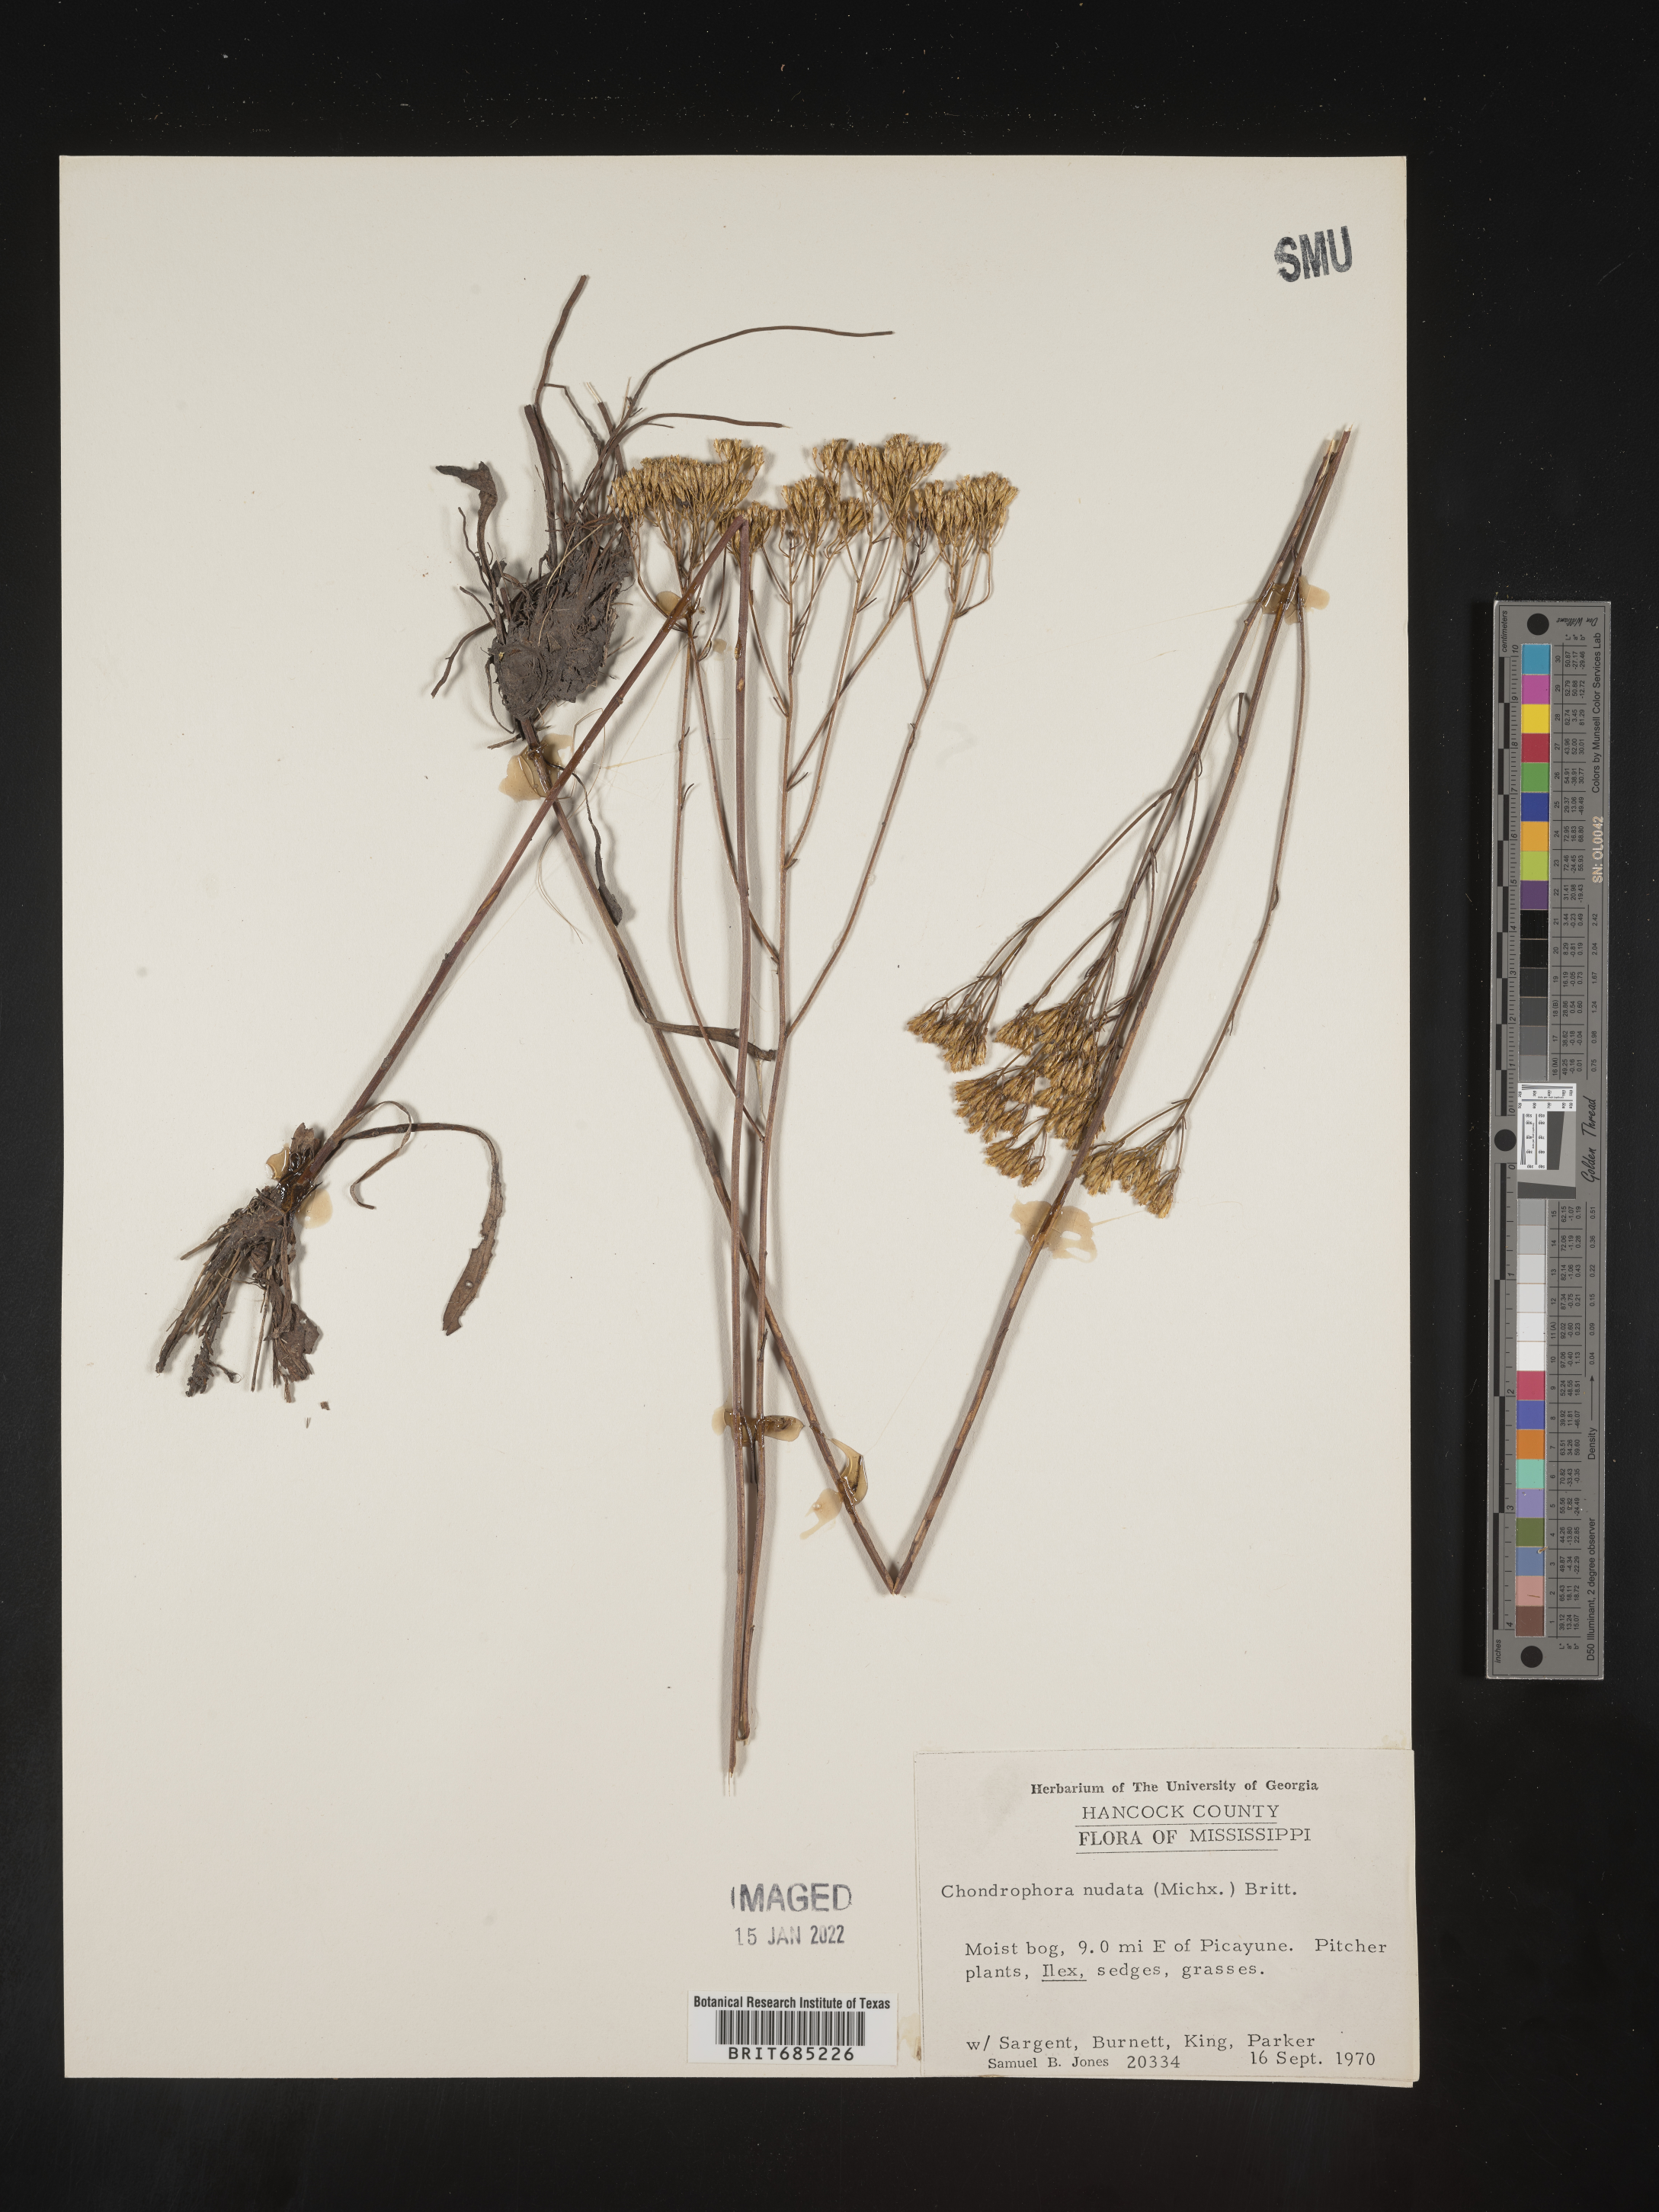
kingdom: Plantae
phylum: Tracheophyta
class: Magnoliopsida
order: Asterales
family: Asteraceae
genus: Bigelowia
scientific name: Bigelowia nudata
